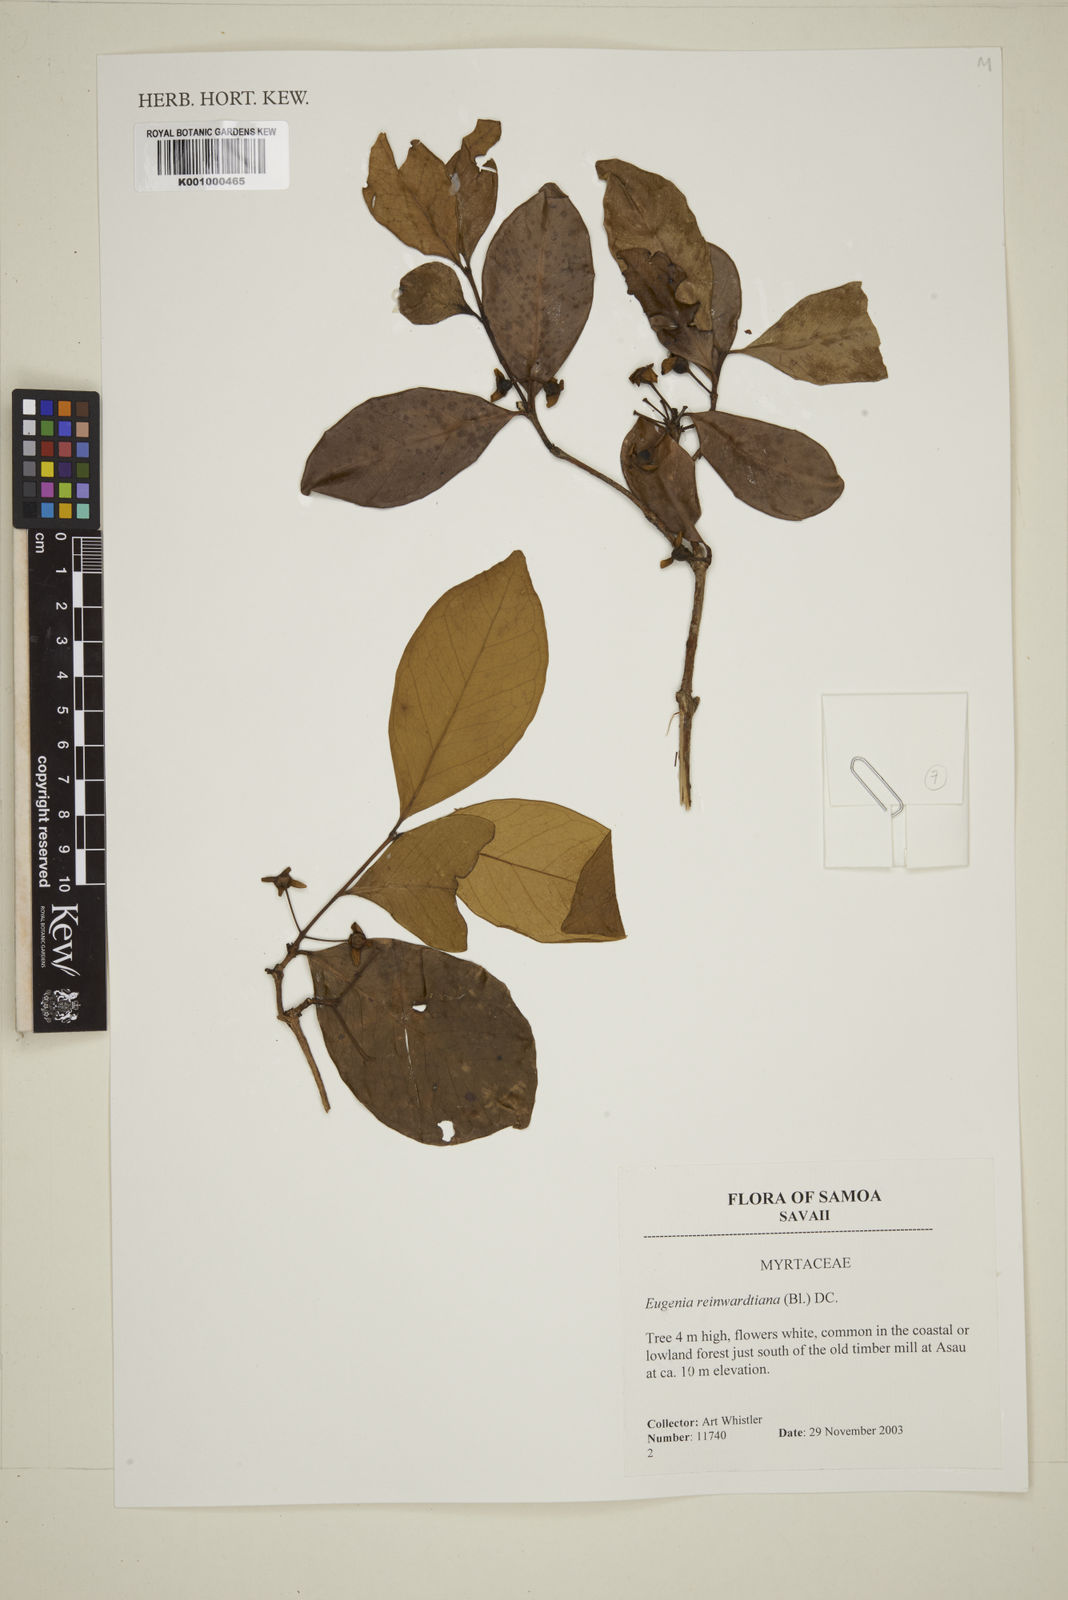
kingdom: Plantae
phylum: Tracheophyta
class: Magnoliopsida
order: Myrtales
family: Myrtaceae
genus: Eugenia
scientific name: Eugenia reinwardtiana
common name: Cedar bay-cherry
